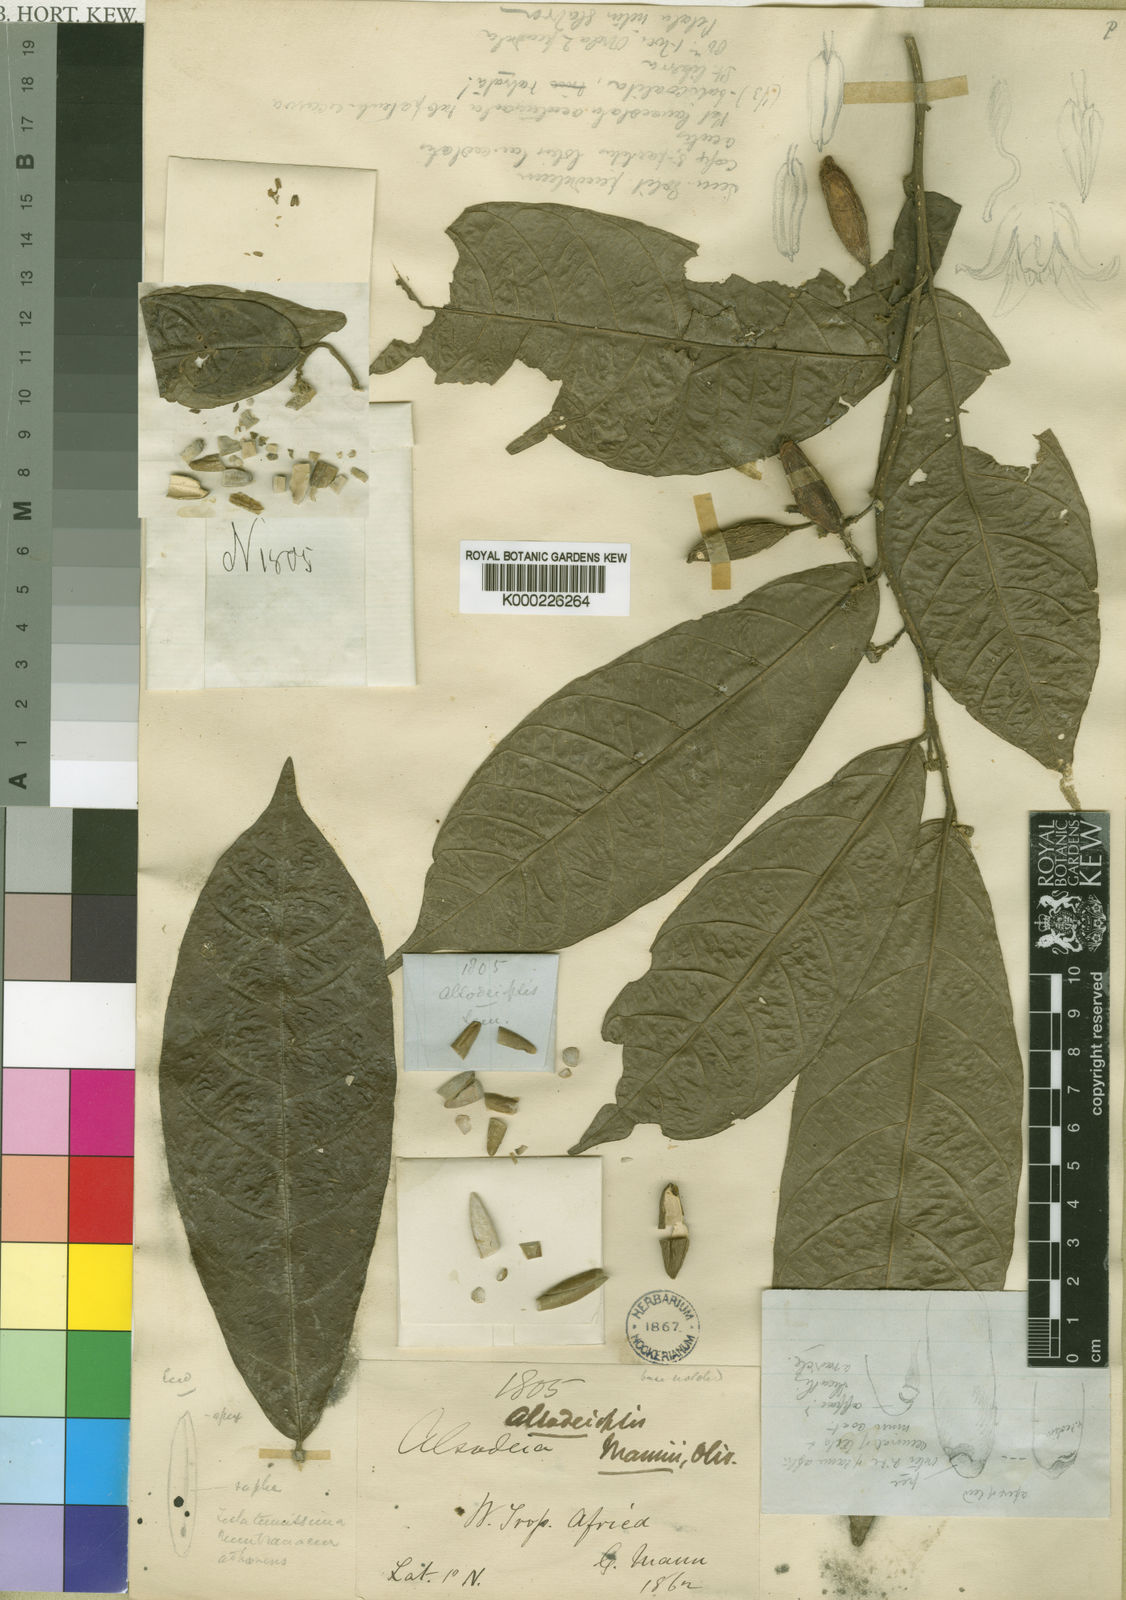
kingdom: Plantae
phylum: Tracheophyta
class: Magnoliopsida
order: Icacinales
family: Icacinaceae
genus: Alsodeiopsis
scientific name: Alsodeiopsis mannii
